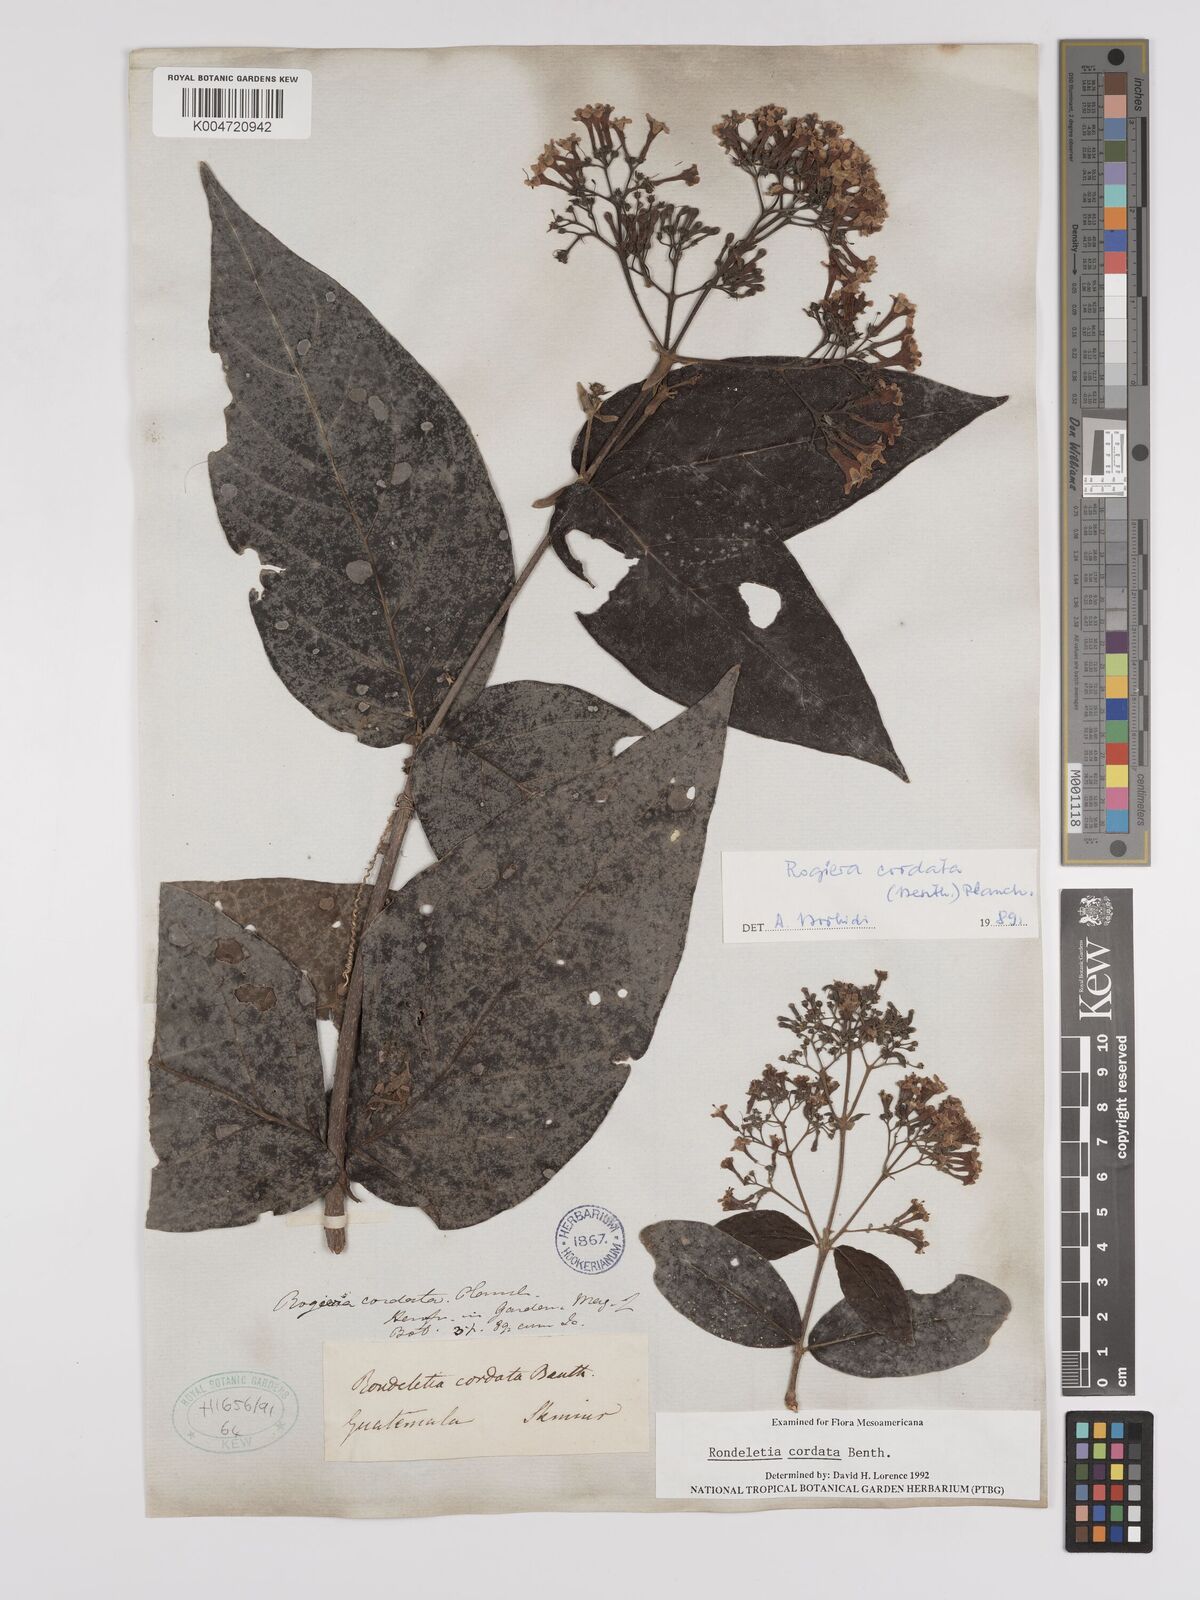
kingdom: Plantae
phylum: Tracheophyta
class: Magnoliopsida
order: Gentianales
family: Rubiaceae
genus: Rogiera
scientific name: Rogiera cordata
